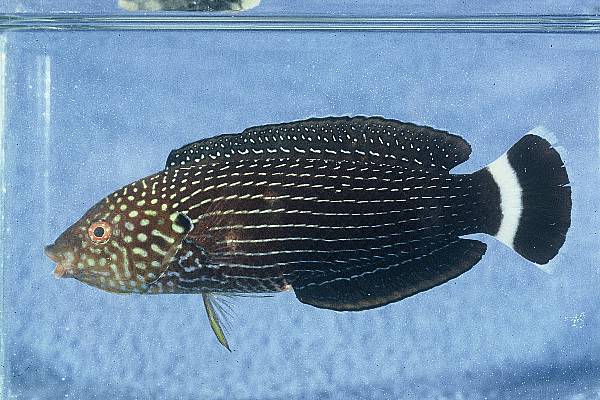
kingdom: Animalia
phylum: Chordata
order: Perciformes
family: Labridae
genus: Anampses
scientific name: Anampses lineatus
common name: Lined wrasse
